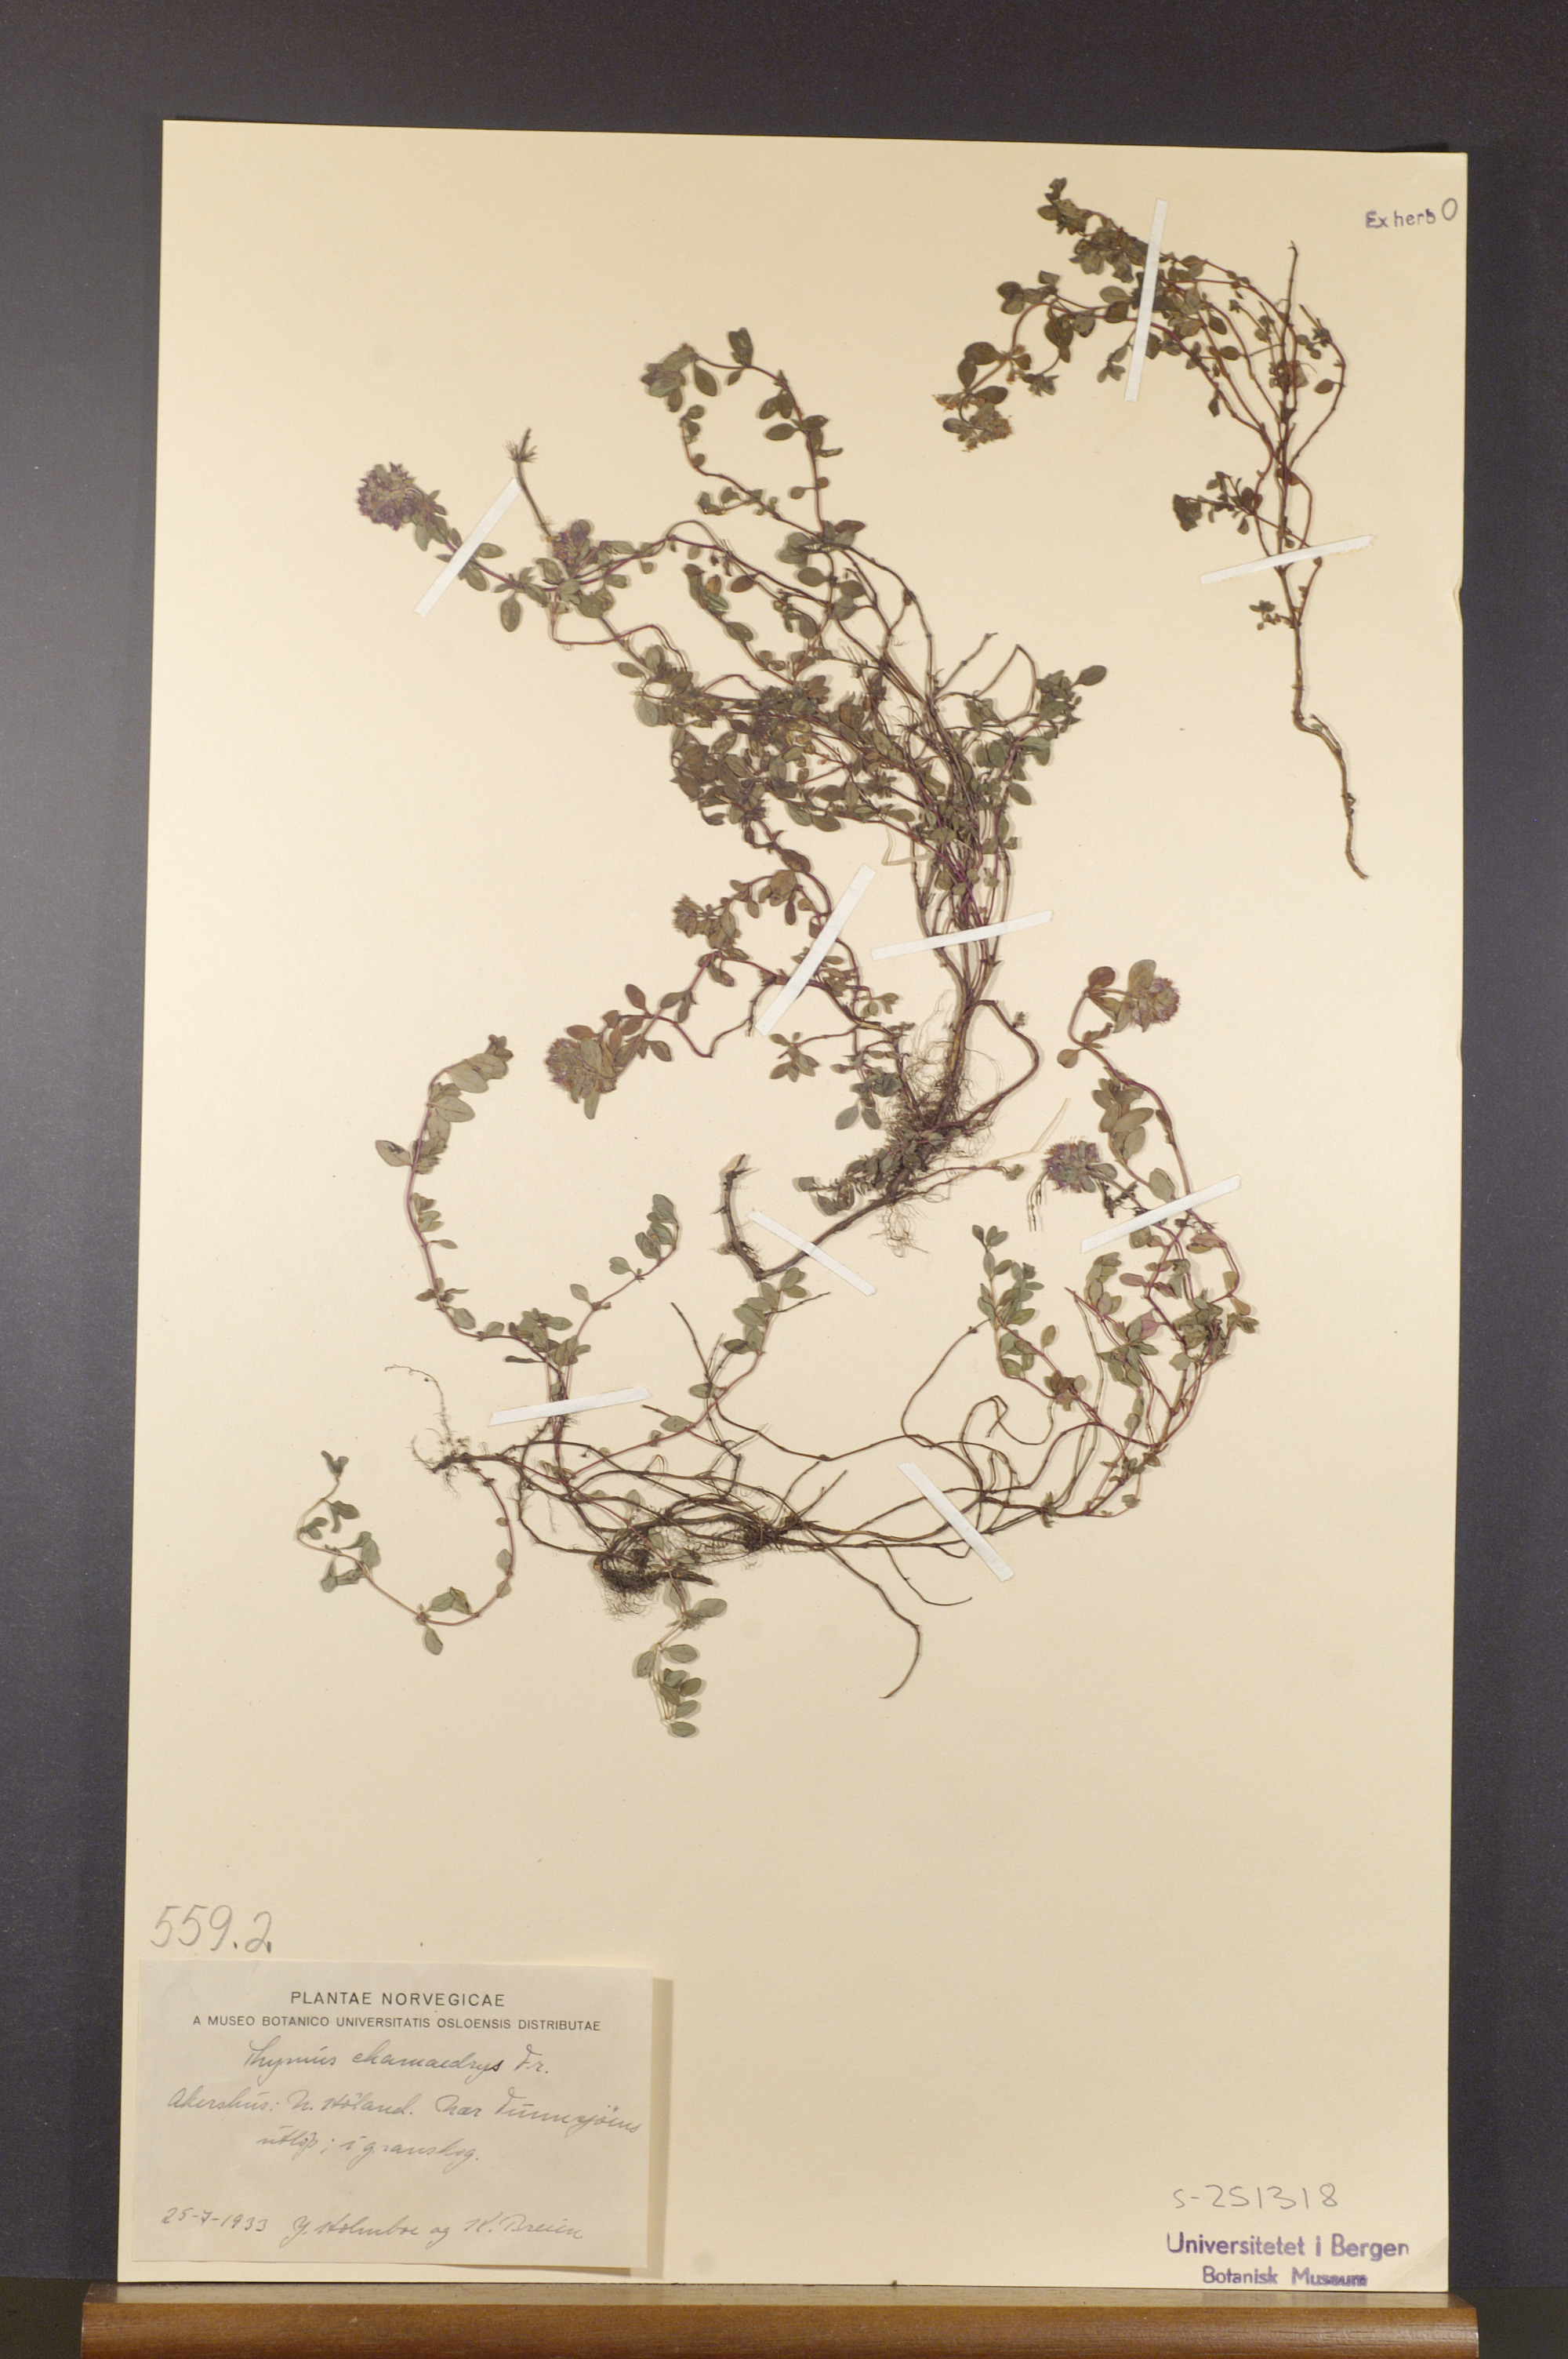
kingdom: Plantae
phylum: Tracheophyta
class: Magnoliopsida
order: Lamiales
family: Lamiaceae
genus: Thymus
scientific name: Thymus pulegioides
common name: Large thyme
